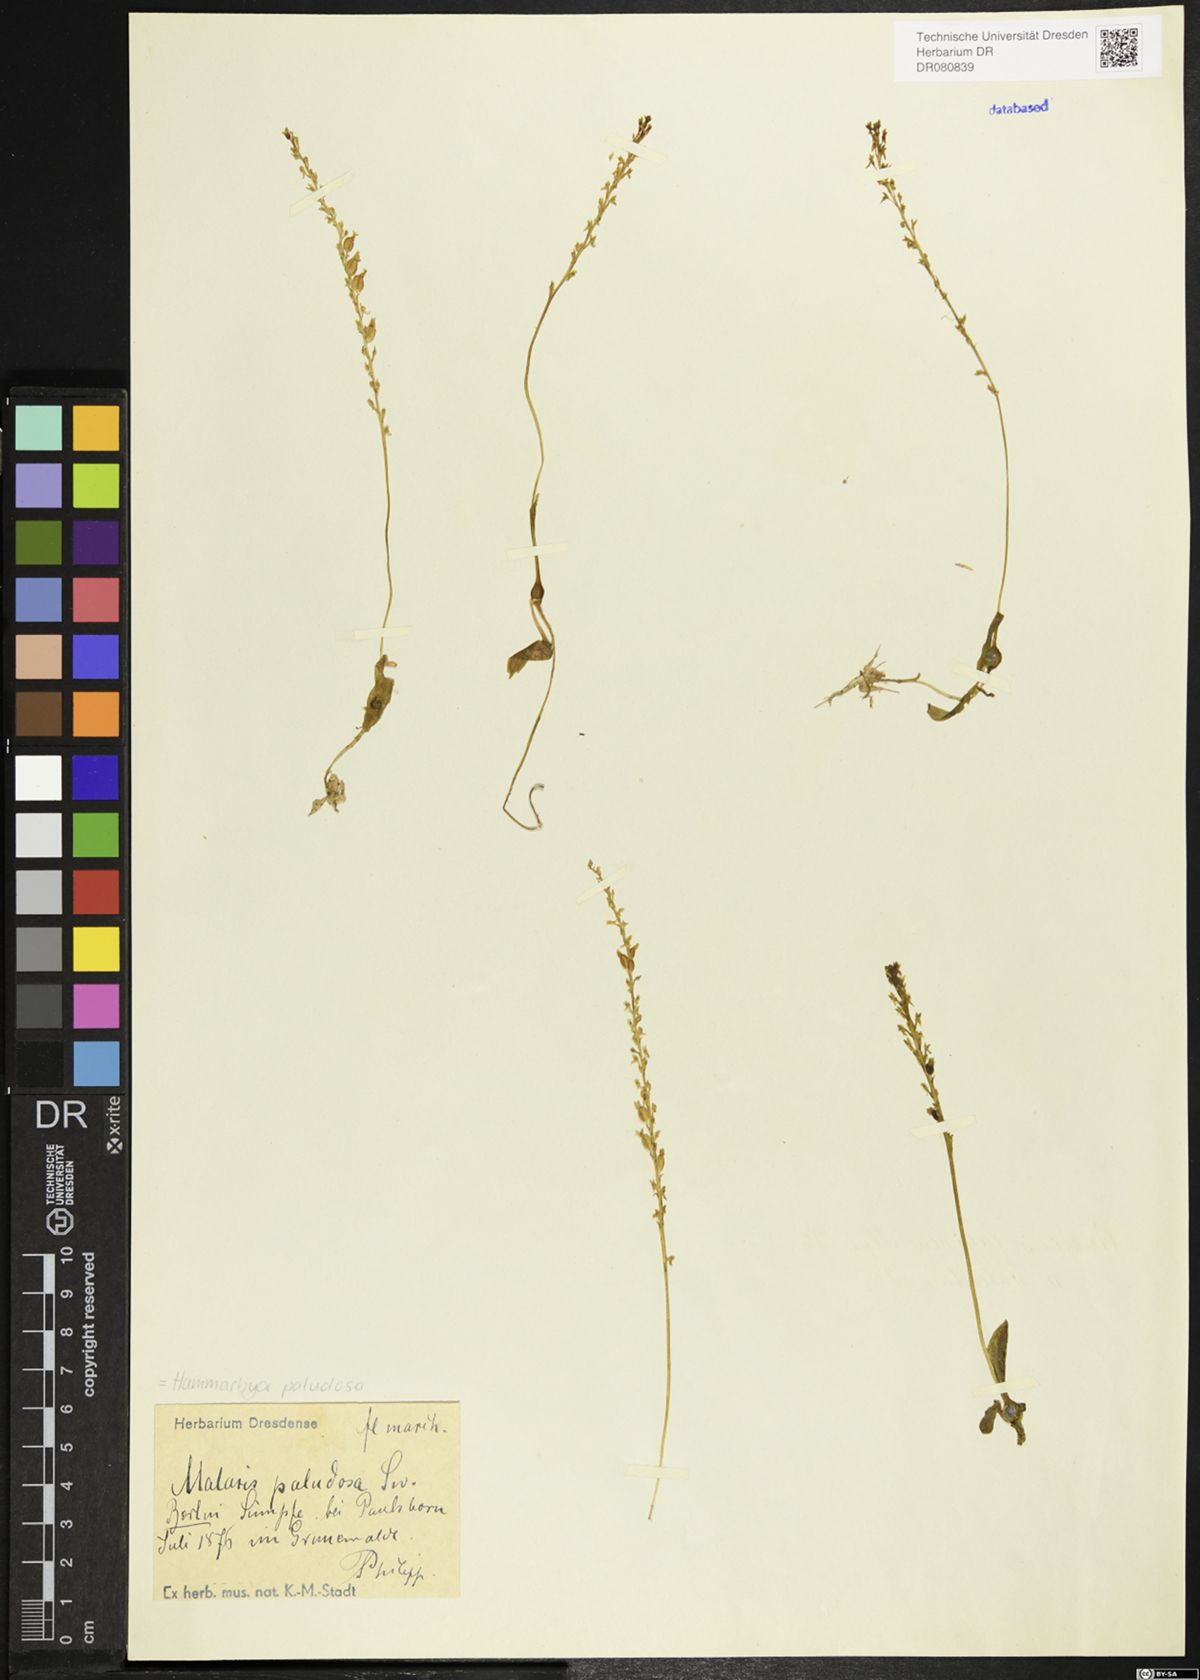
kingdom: Plantae
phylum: Tracheophyta
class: Liliopsida
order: Asparagales
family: Orchidaceae
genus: Hammarbya
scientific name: Hammarbya paludosa
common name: Bog orchid
